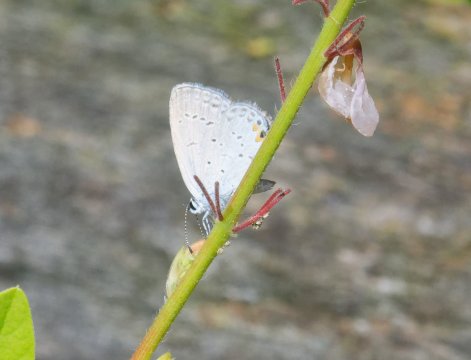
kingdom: Animalia
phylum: Arthropoda
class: Insecta
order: Lepidoptera
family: Lycaenidae
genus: Elkalyce
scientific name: Elkalyce comyntas
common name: Eastern Tailed-Blue
